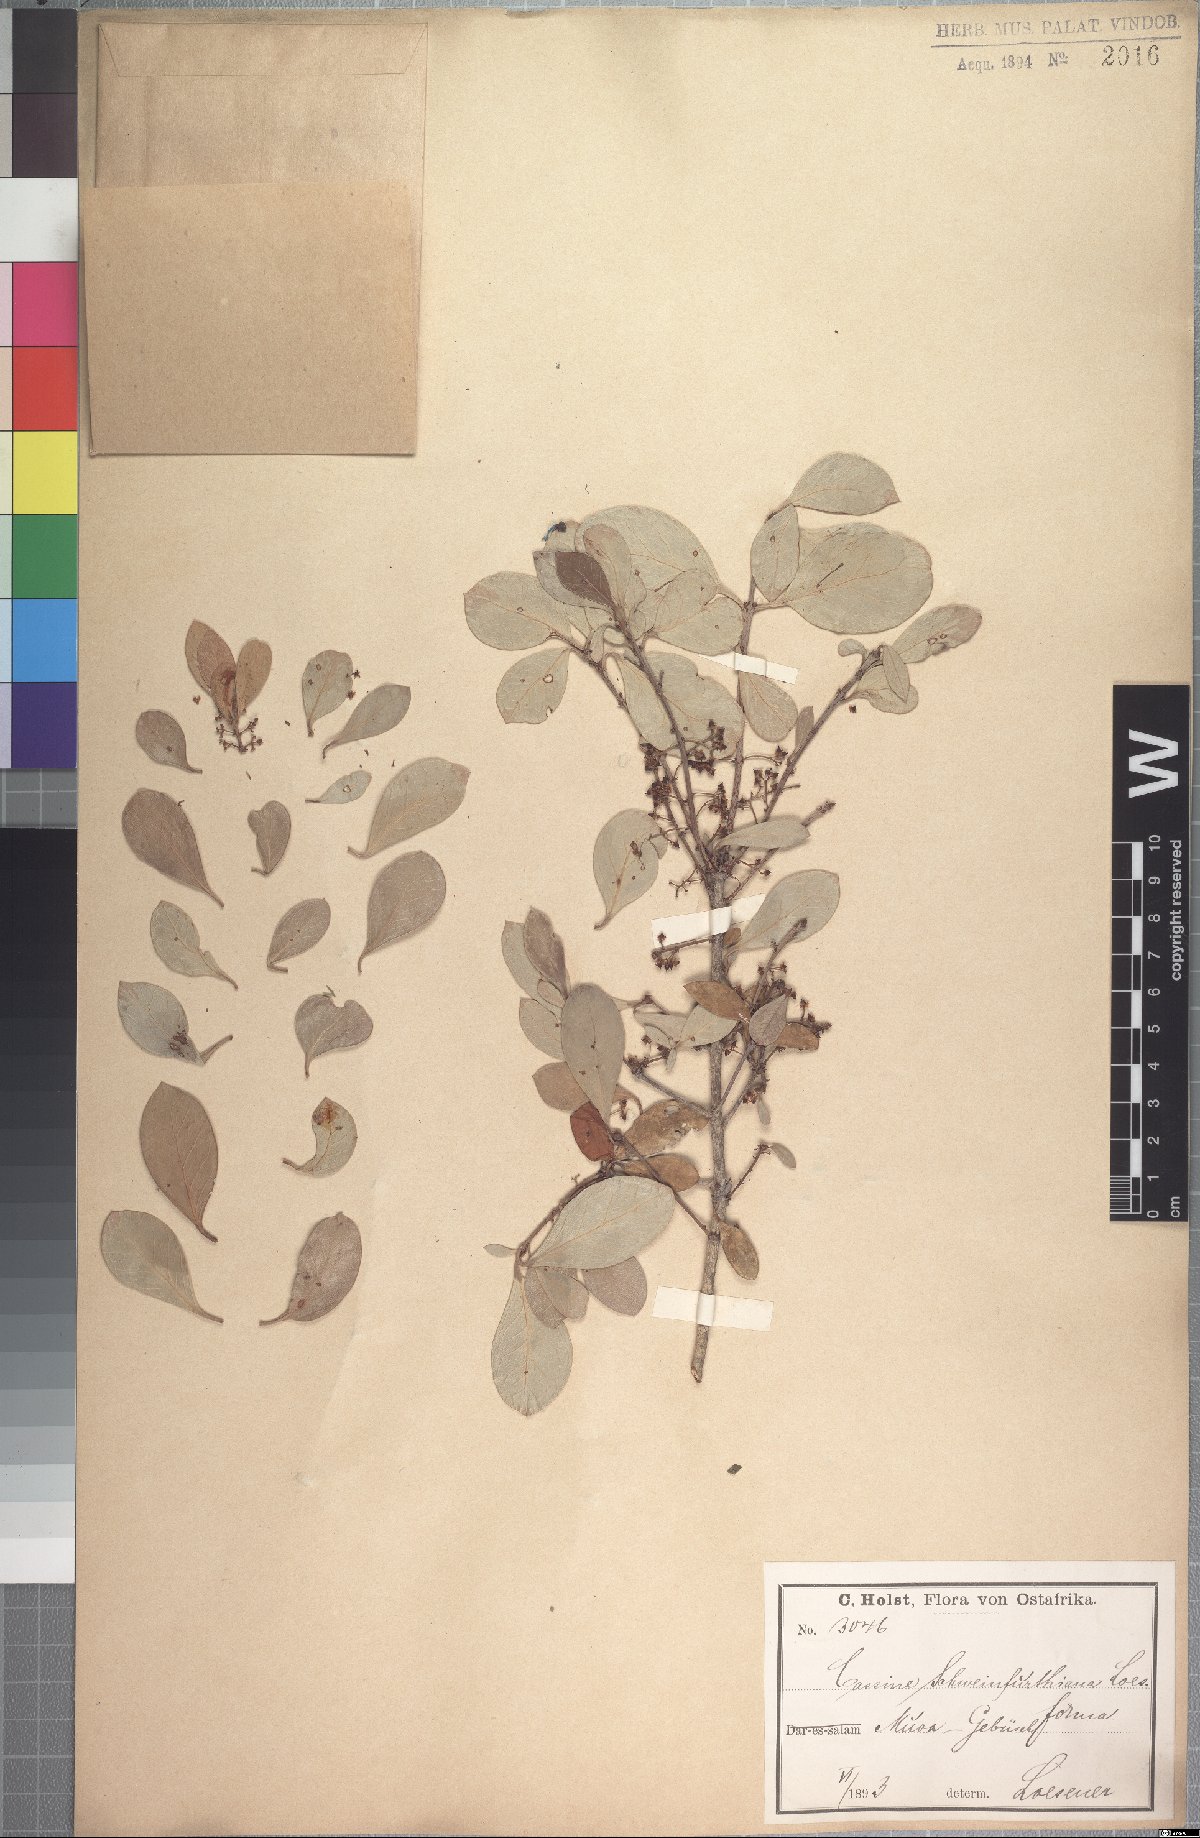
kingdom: Plantae
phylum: Tracheophyta
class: Magnoliopsida
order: Celastrales
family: Celastraceae
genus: Elaeodendron
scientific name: Elaeodendron schweinfurthianum
